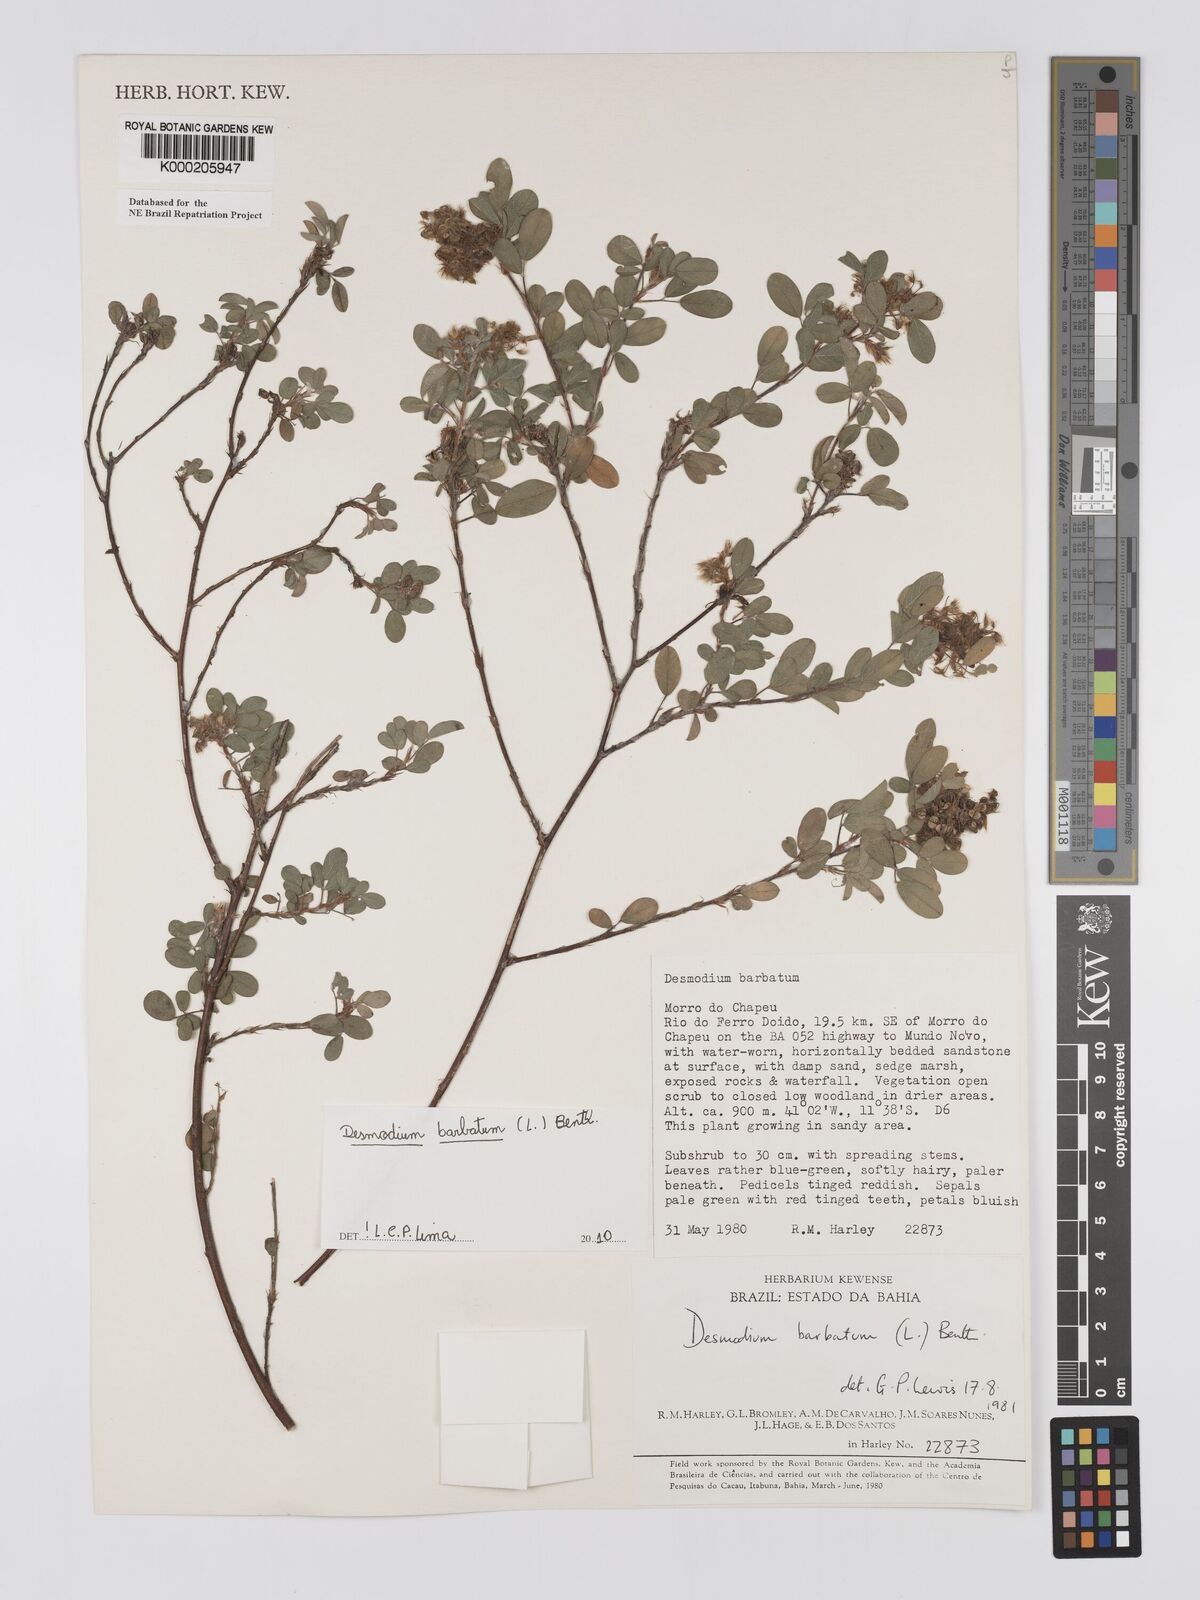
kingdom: Plantae
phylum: Tracheophyta
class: Magnoliopsida
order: Fabales
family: Fabaceae
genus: Grona
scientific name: Grona barbata
